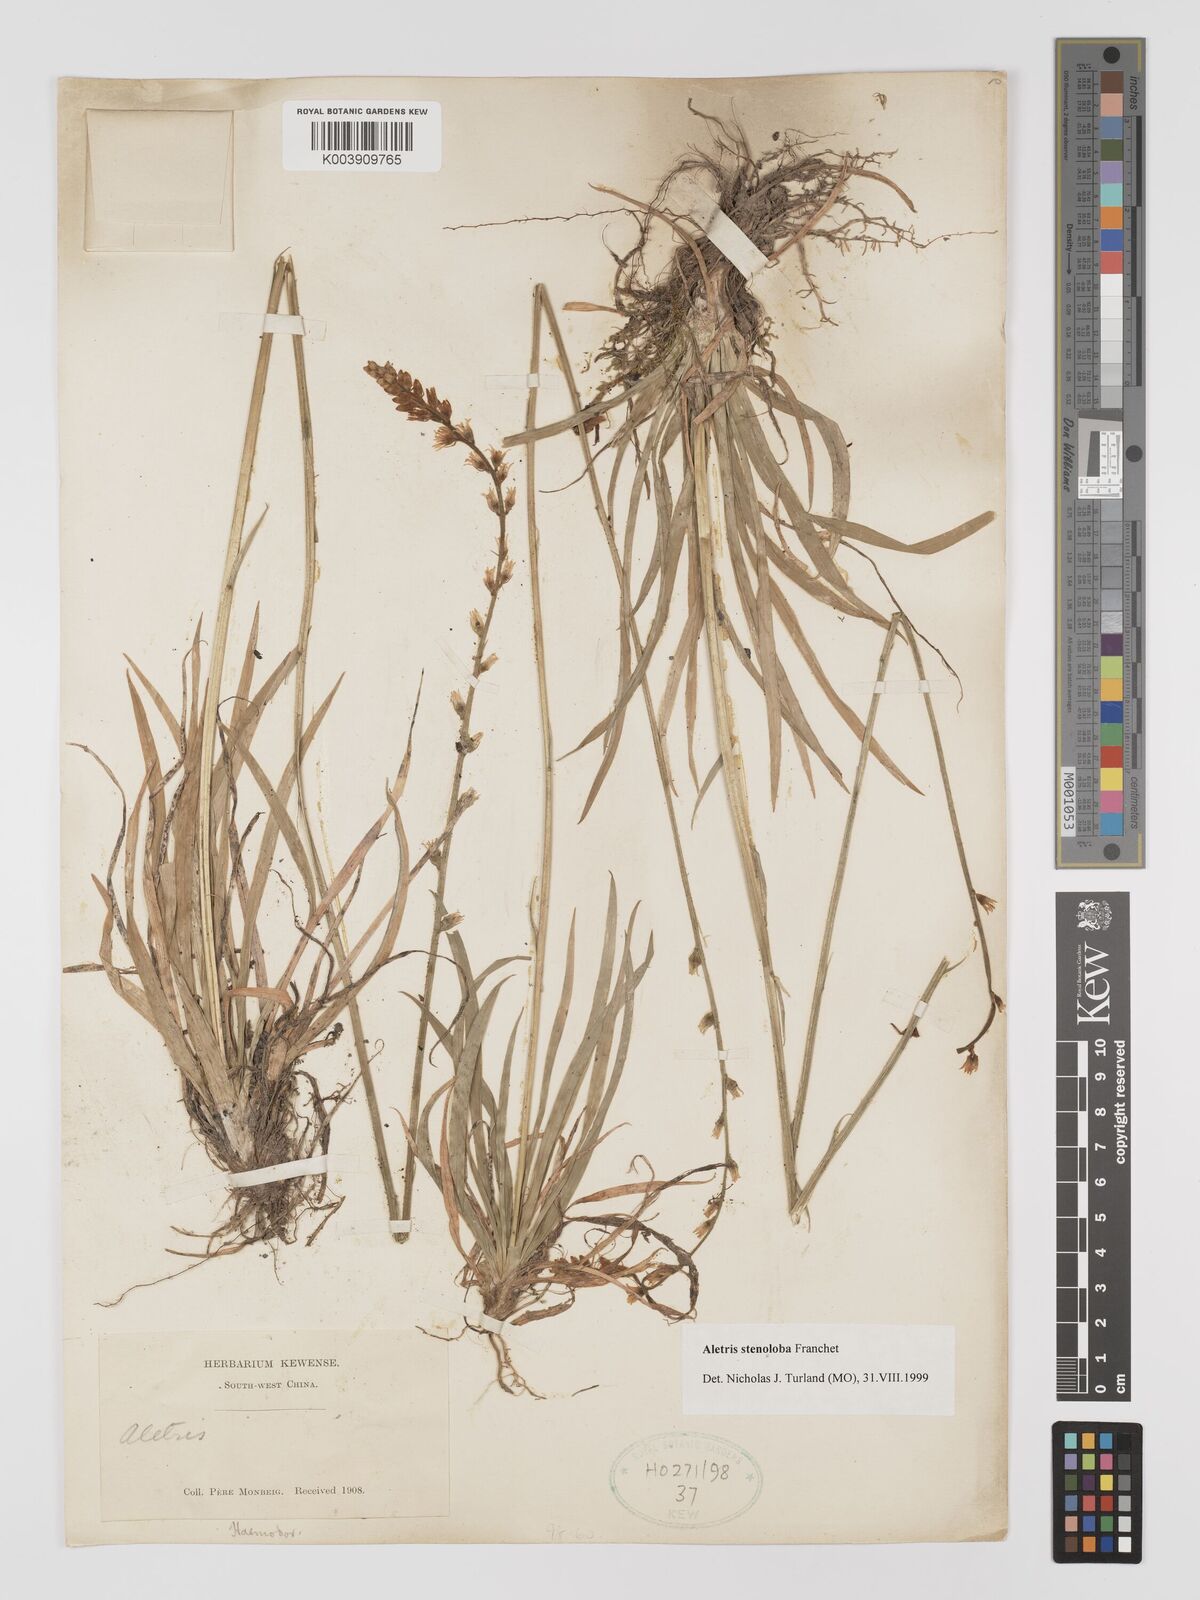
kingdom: Plantae
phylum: Tracheophyta
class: Liliopsida
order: Dioscoreales
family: Nartheciaceae
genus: Aletris
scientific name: Aletris stenoloba
